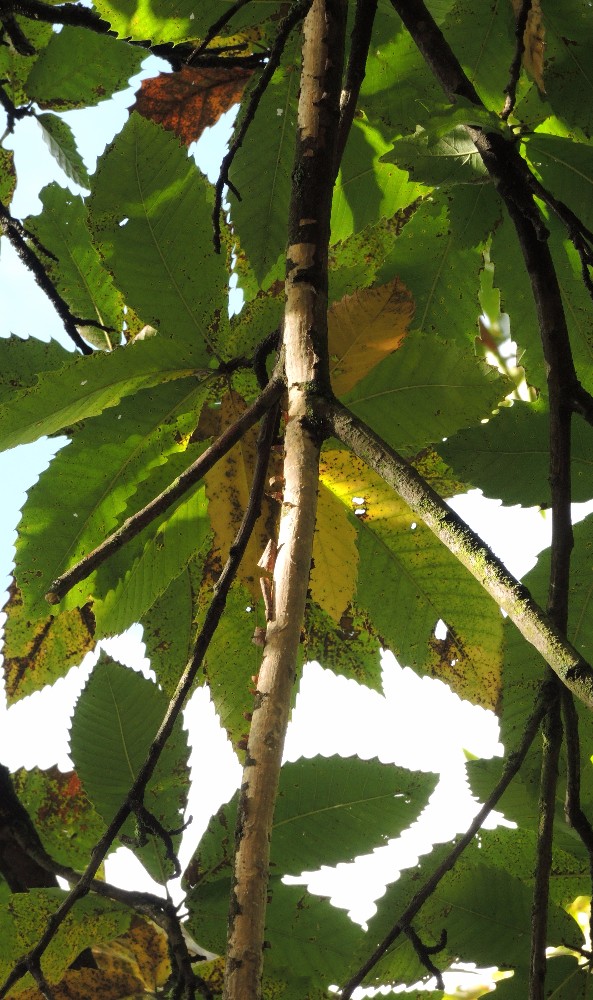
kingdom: Fungi
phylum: Basidiomycota
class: Agaricomycetes
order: Corticiales
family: Vuilleminiaceae
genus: Vuilleminia
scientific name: Vuilleminia comedens
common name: almindelig barksprænger
